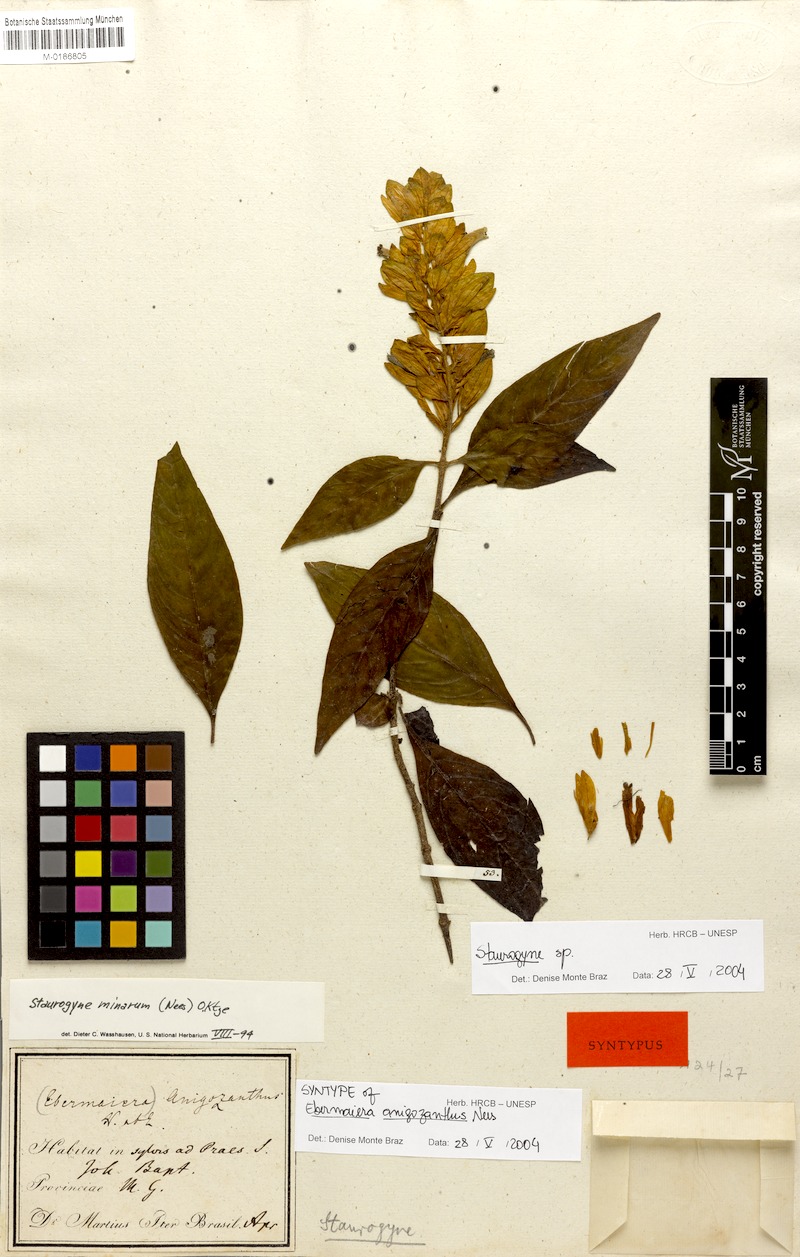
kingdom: Plantae
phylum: Tracheophyta
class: Magnoliopsida
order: Lamiales
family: Acanthaceae
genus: Staurogyne
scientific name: Staurogyne anigozanthus
